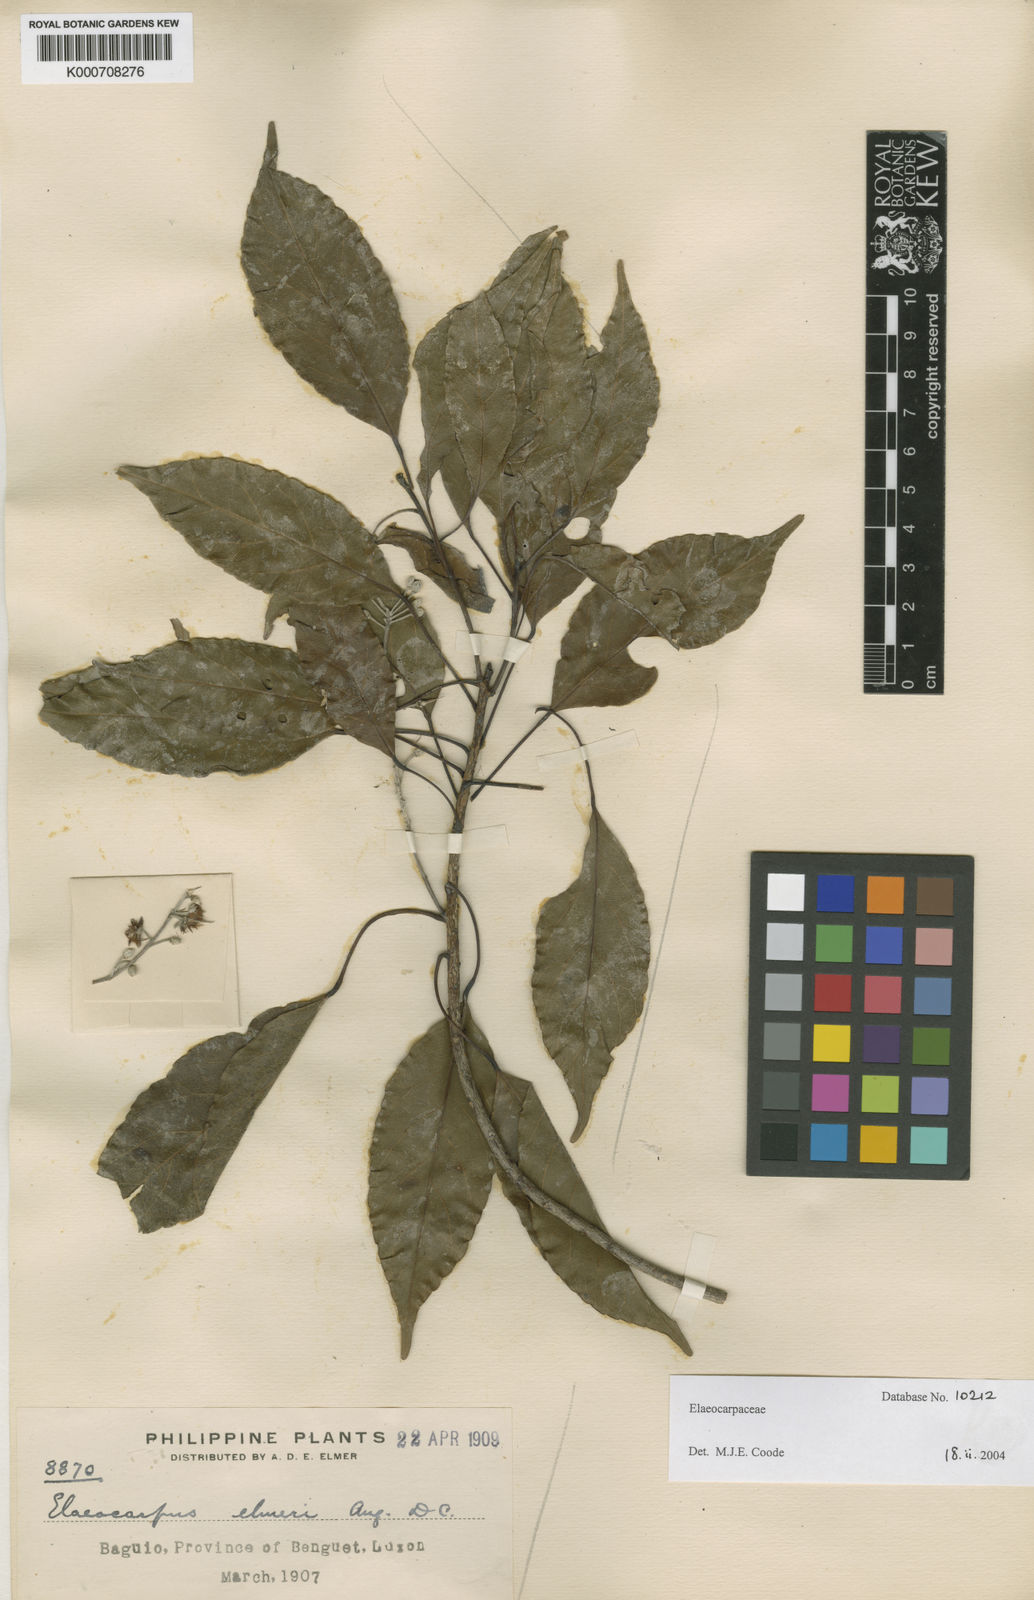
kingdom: Plantae
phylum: Tracheophyta
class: Magnoliopsida
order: Oxalidales
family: Elaeocarpaceae
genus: Elaeocarpus
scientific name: Elaeocarpus elmeri
